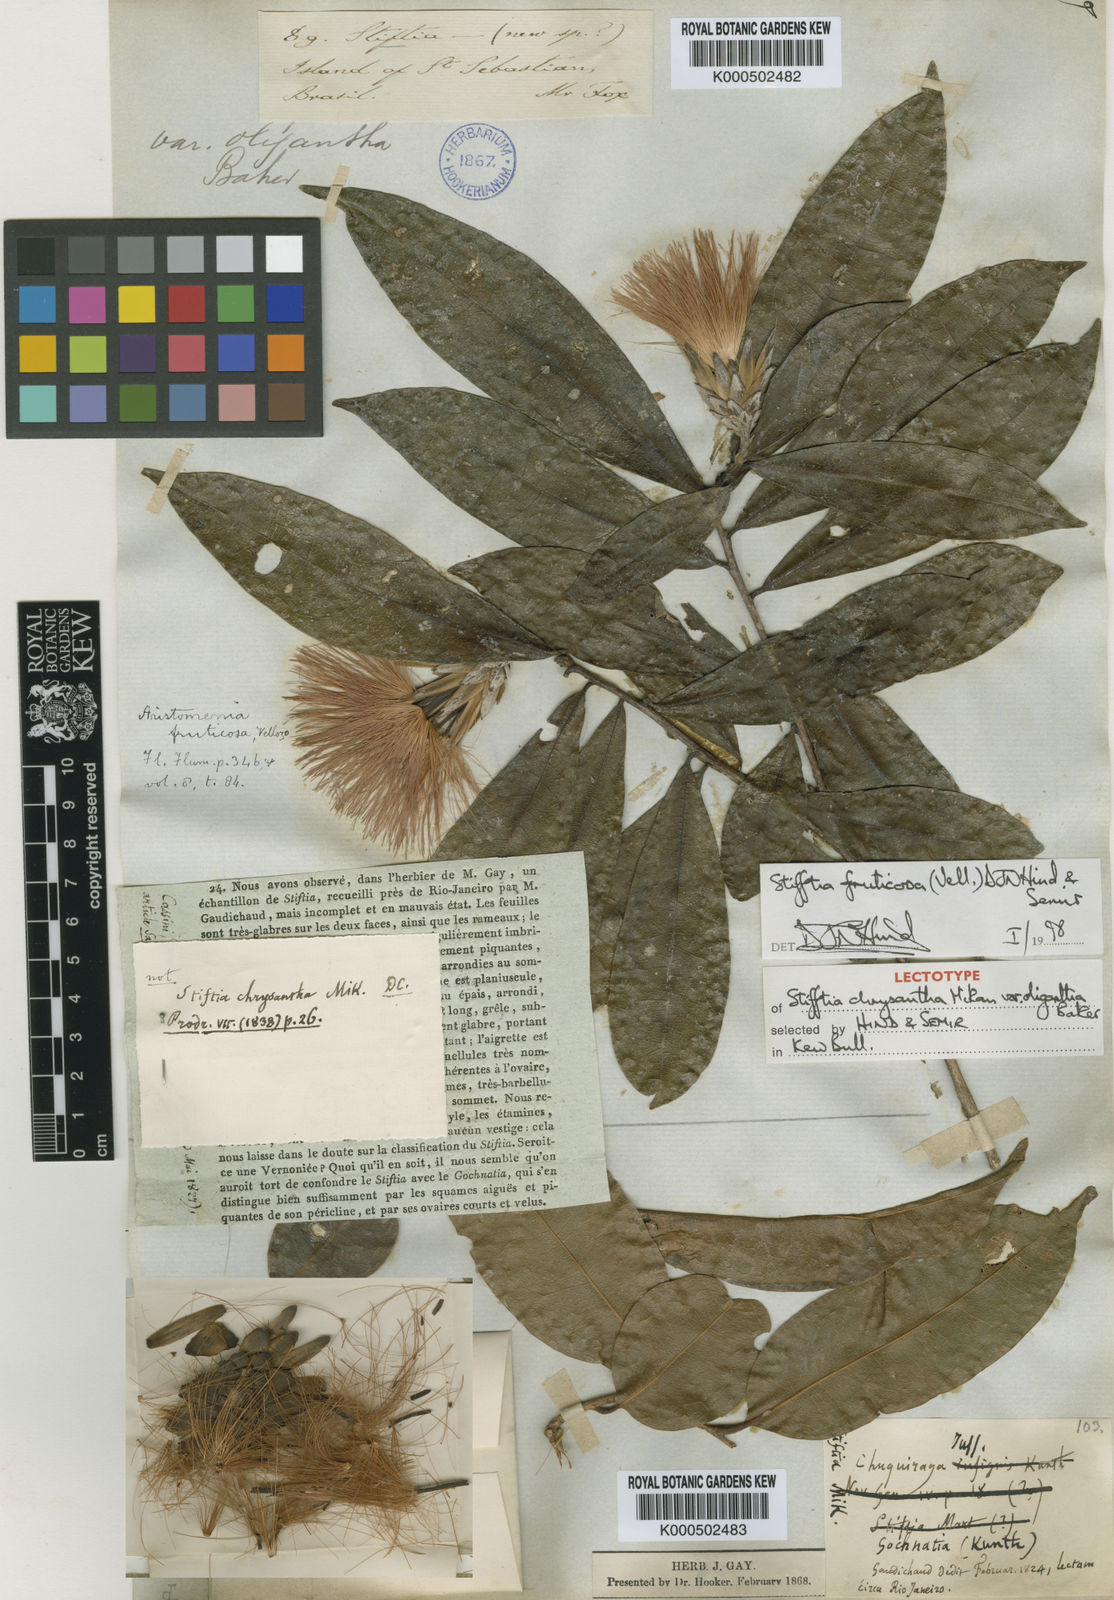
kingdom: Plantae
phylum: Tracheophyta
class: Magnoliopsida
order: Asterales
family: Asteraceae
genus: Stifftia
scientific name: Stifftia fruticosa
